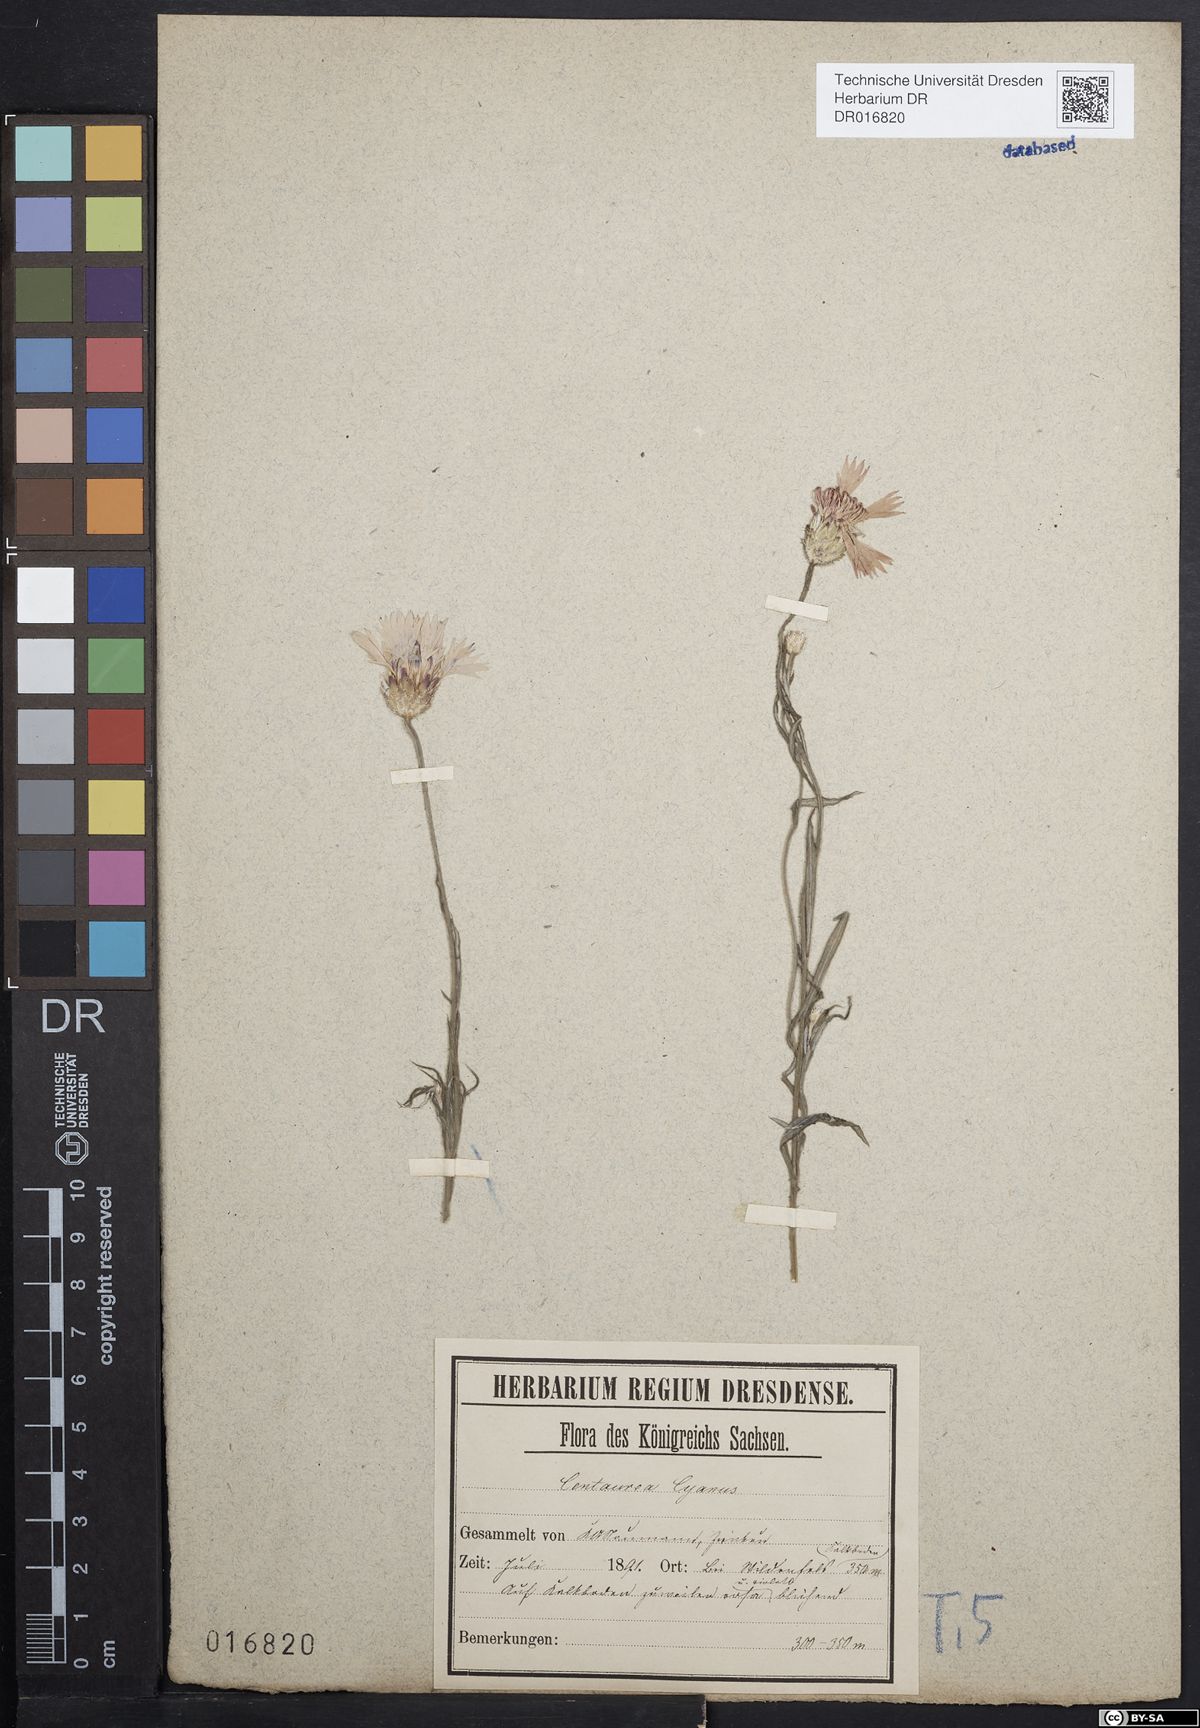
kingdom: Plantae
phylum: Tracheophyta
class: Magnoliopsida
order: Asterales
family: Asteraceae
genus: Centaurea
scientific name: Centaurea cyanus
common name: Cornflower
